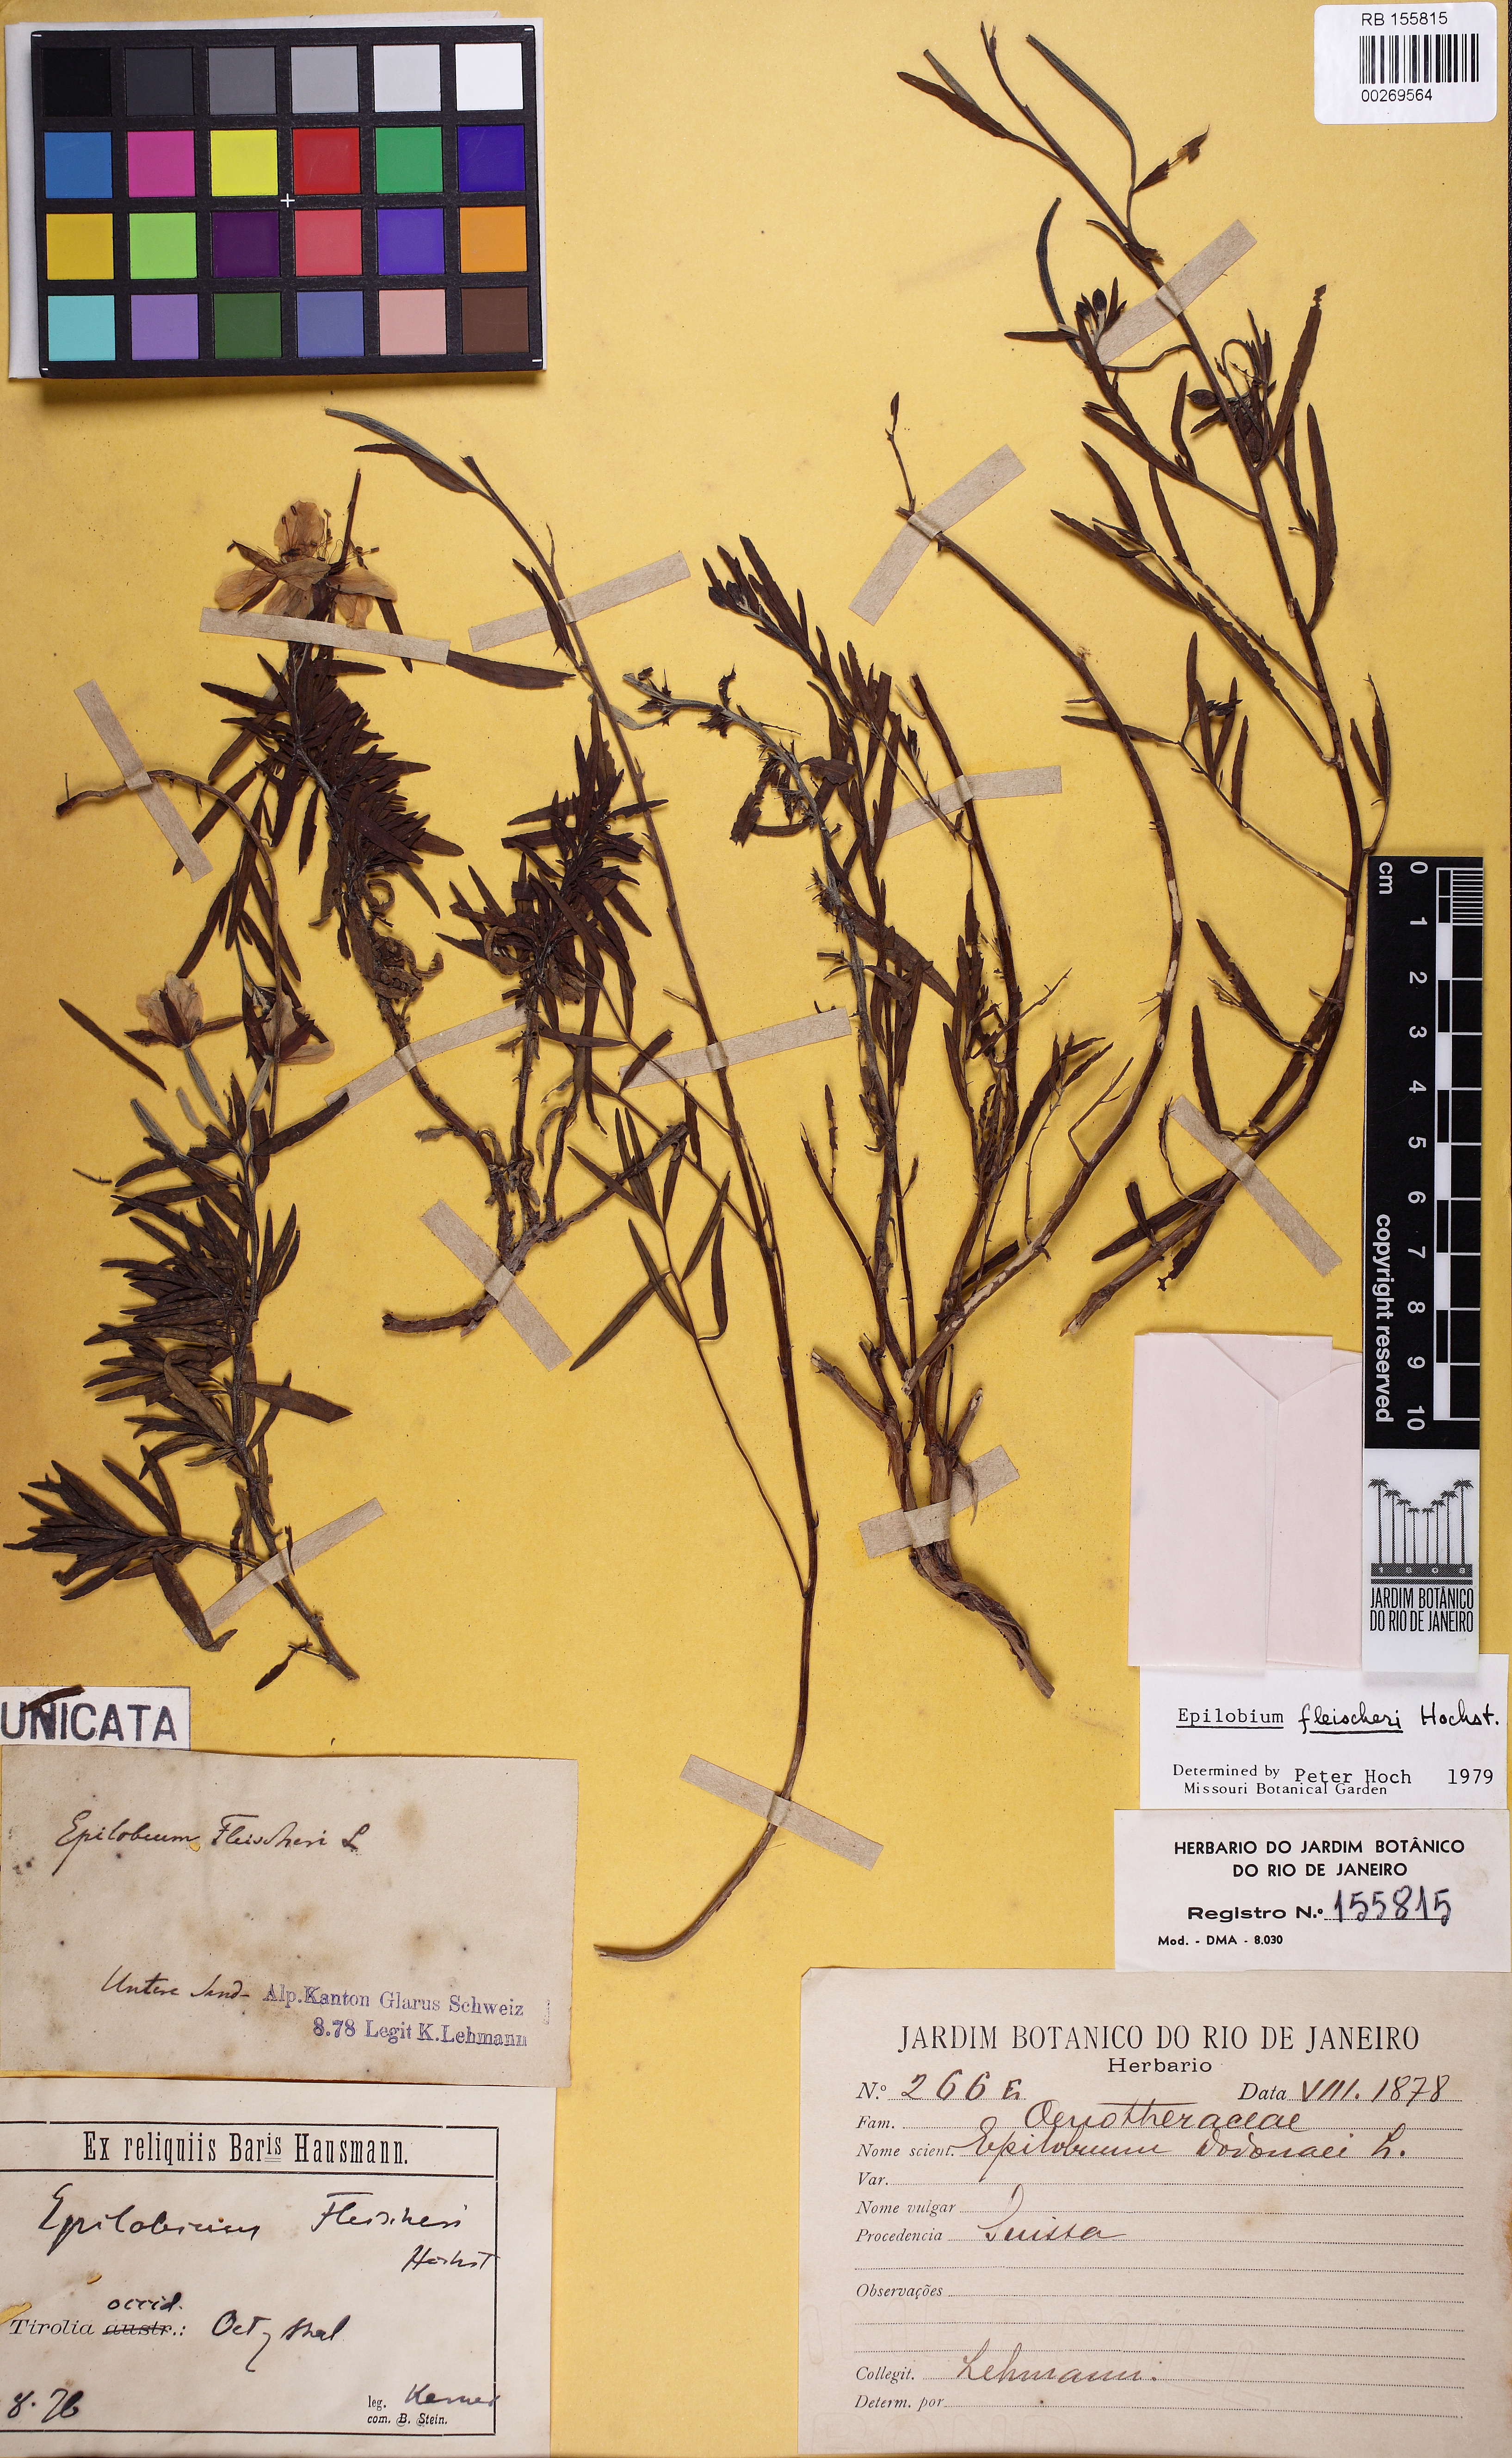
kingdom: Plantae
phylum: Tracheophyta
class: Magnoliopsida
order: Myrtales
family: Onagraceae
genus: Chamaenerion
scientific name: Chamaenerion fleischeri
